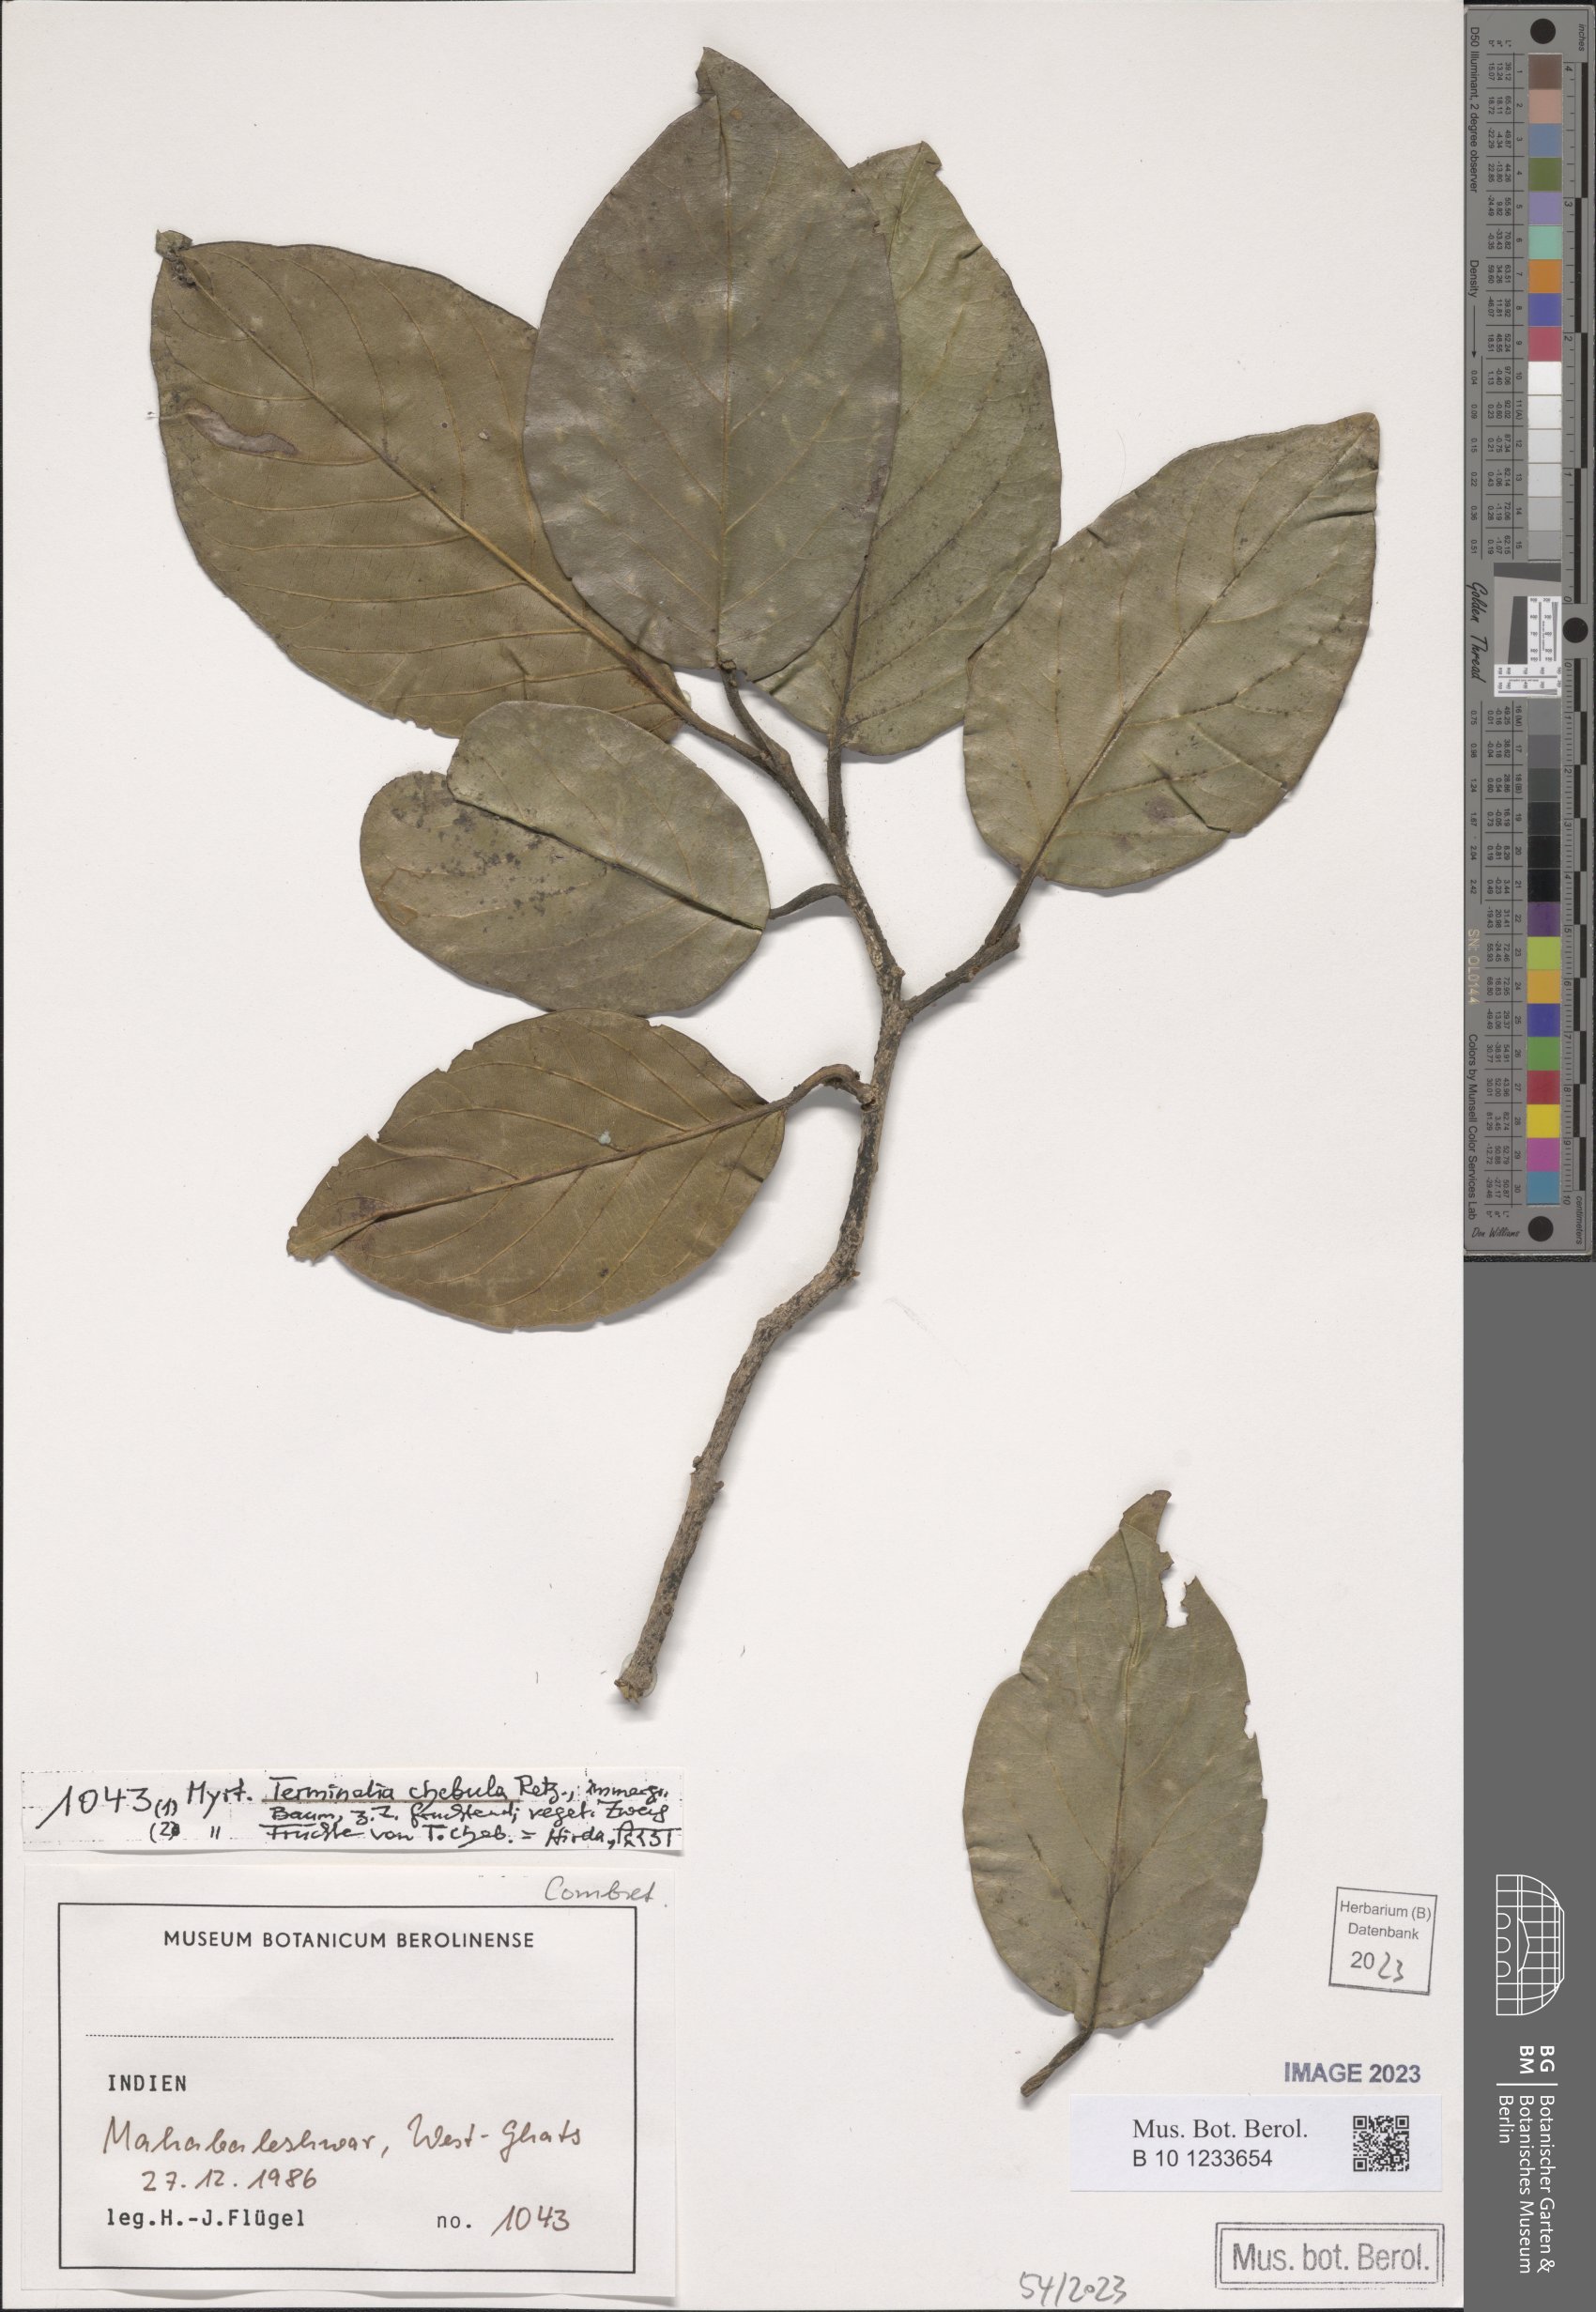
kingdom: Plantae
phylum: Tracheophyta
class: Magnoliopsida
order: Myrtales
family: Combretaceae
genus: Terminalia
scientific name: Terminalia chebula
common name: Myrobalan
